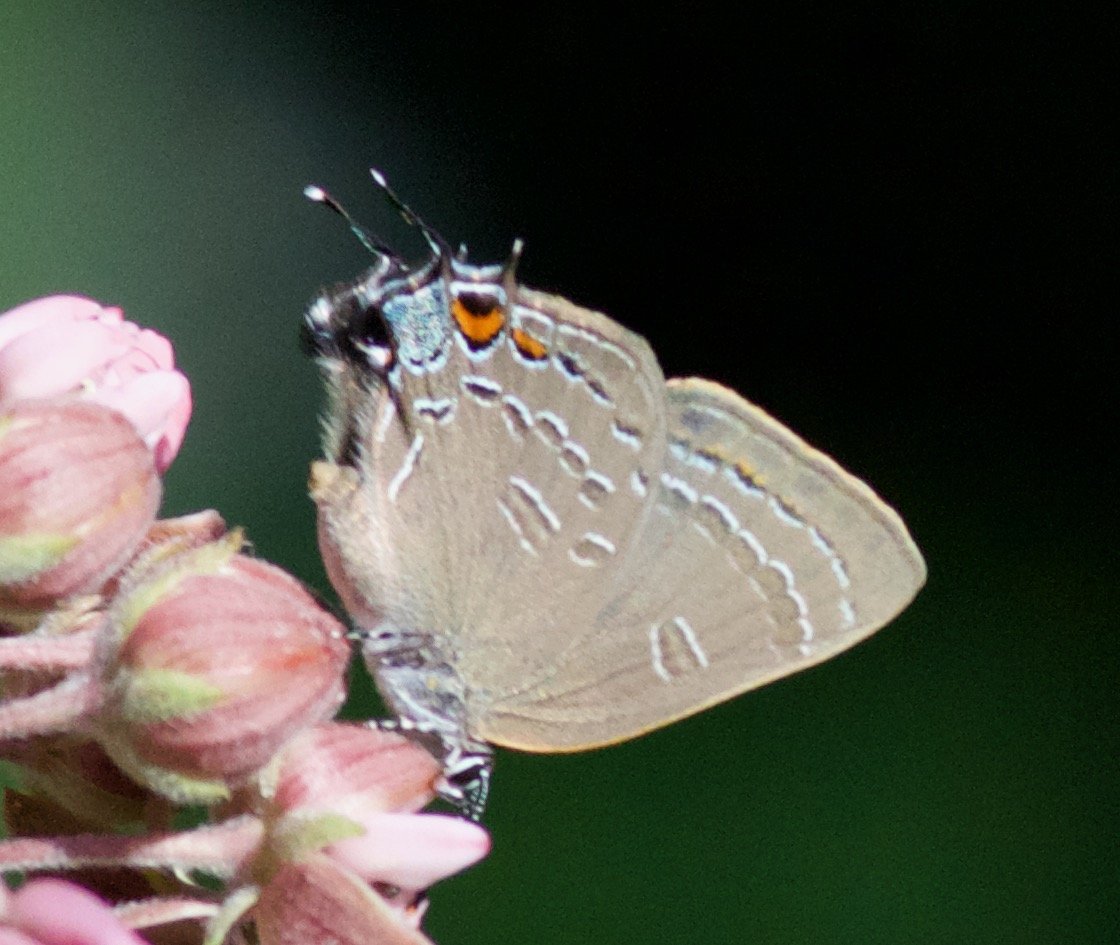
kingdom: Animalia
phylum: Arthropoda
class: Insecta
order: Lepidoptera
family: Lycaenidae
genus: Satyrium
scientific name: Satyrium calanus
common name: Banded Hairstreak
